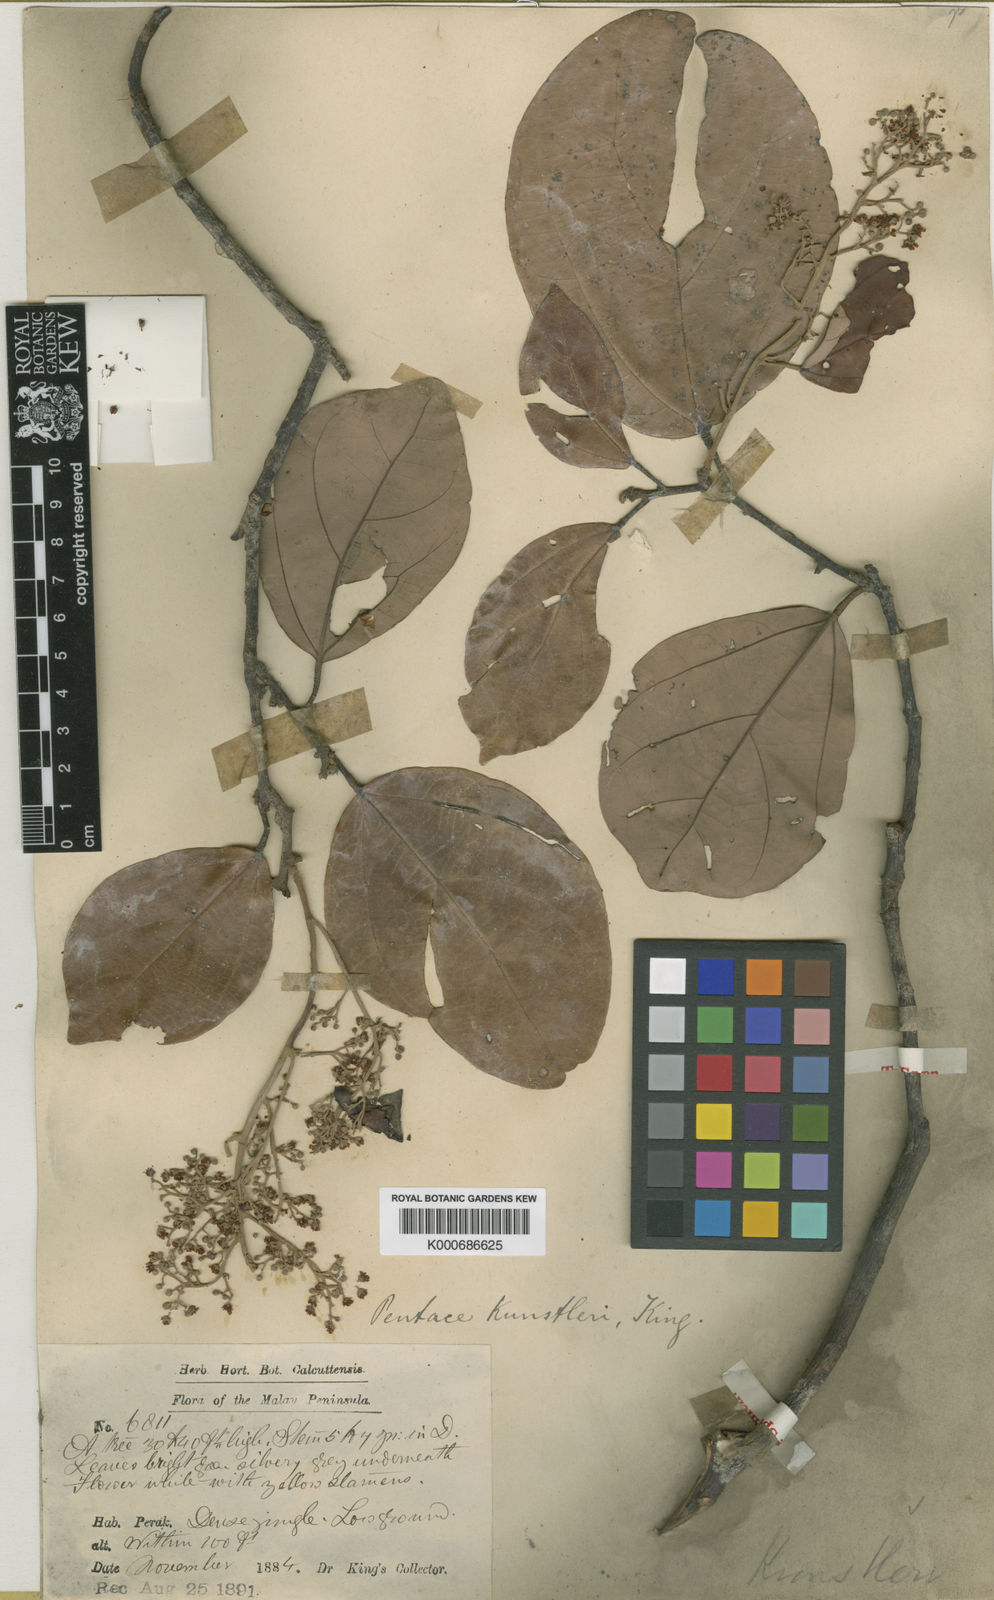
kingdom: Plantae
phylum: Tracheophyta
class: Magnoliopsida
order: Malvales
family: Malvaceae
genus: Pentace
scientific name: Pentace perakensis
